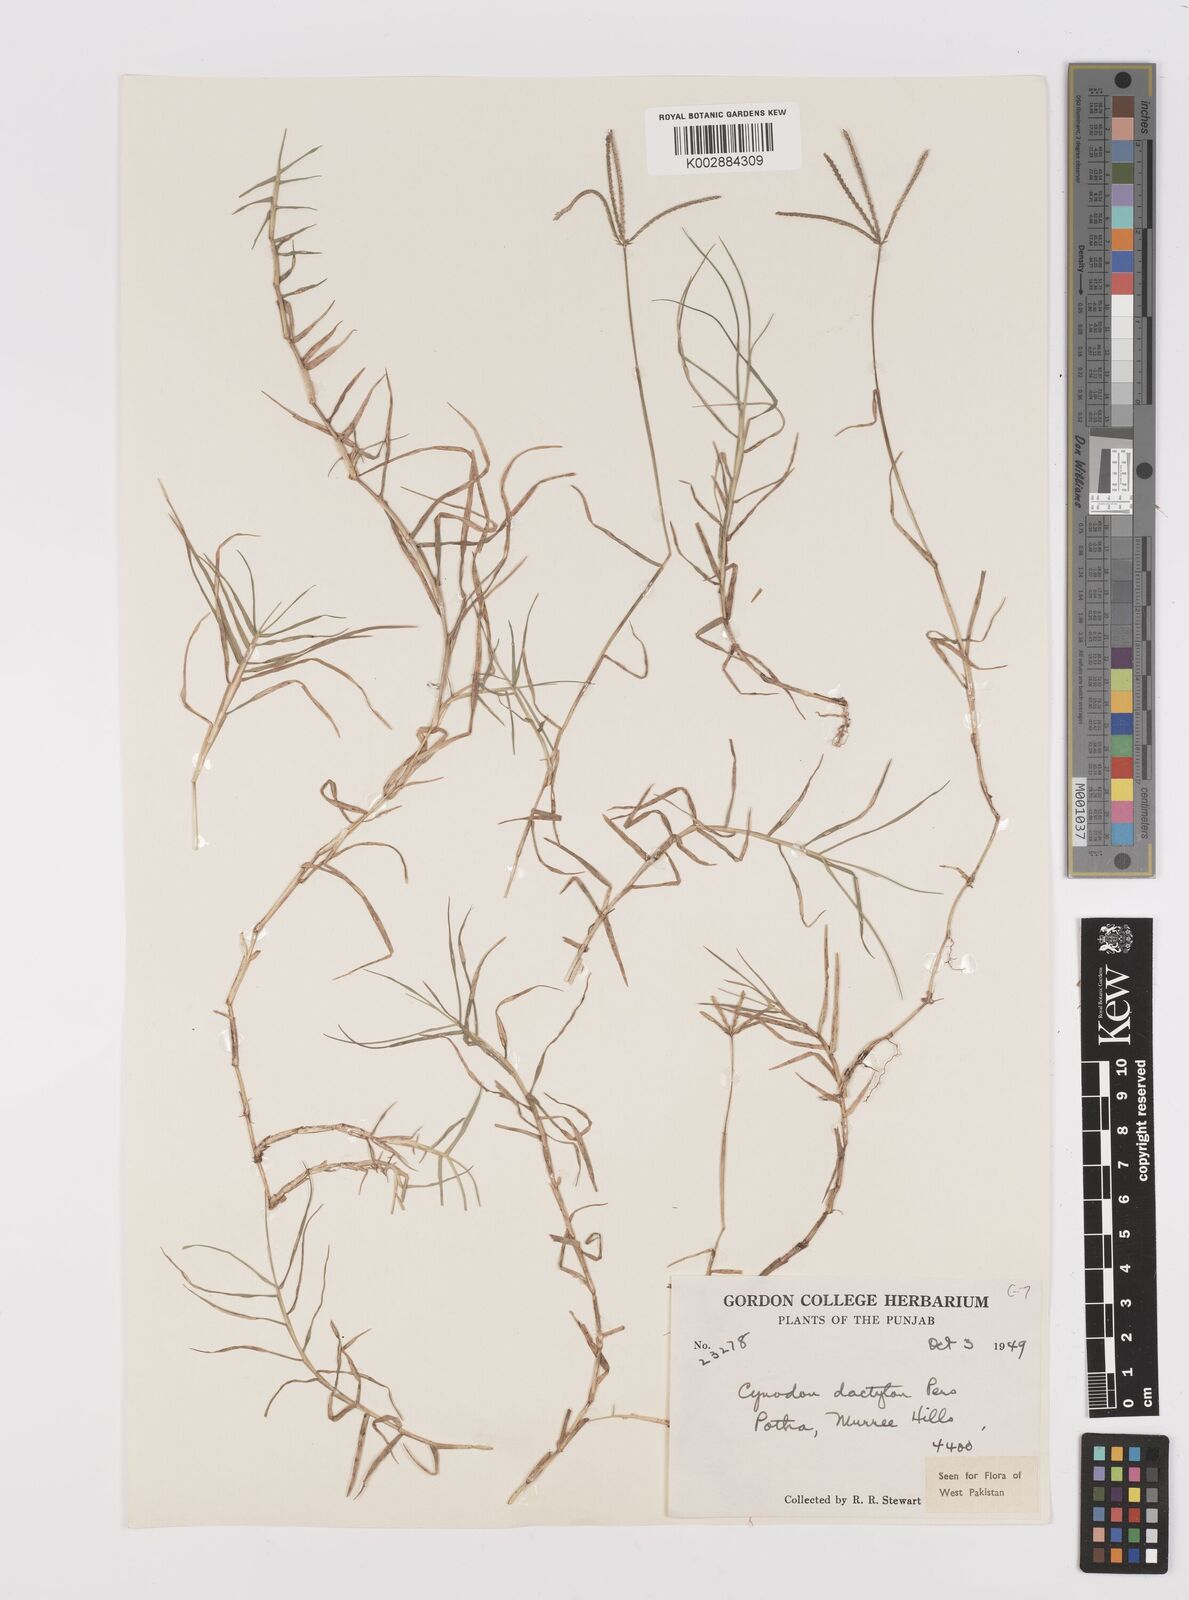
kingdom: Plantae
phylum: Tracheophyta
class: Liliopsida
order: Poales
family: Poaceae
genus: Cynodon
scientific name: Cynodon dactylon
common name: Bermuda grass
